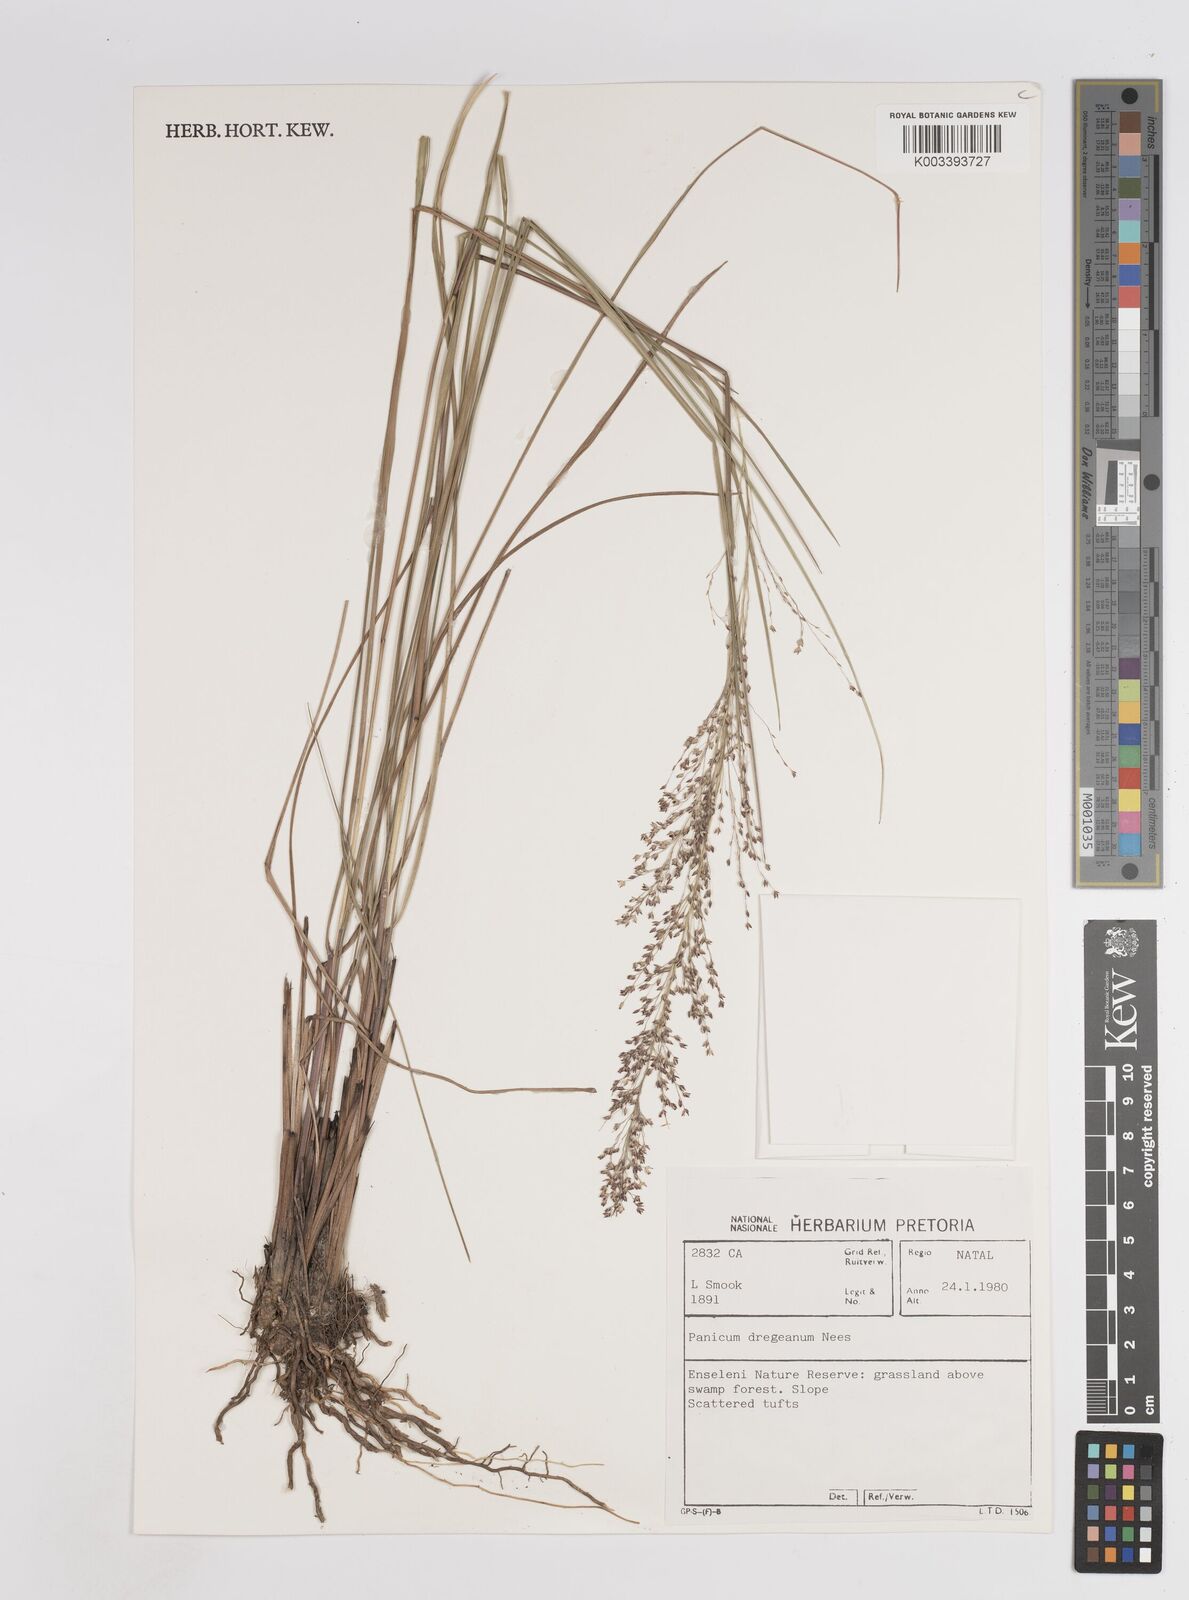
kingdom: Plantae
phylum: Tracheophyta
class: Liliopsida
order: Poales
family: Poaceae
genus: Panicum
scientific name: Panicum dregeanum
